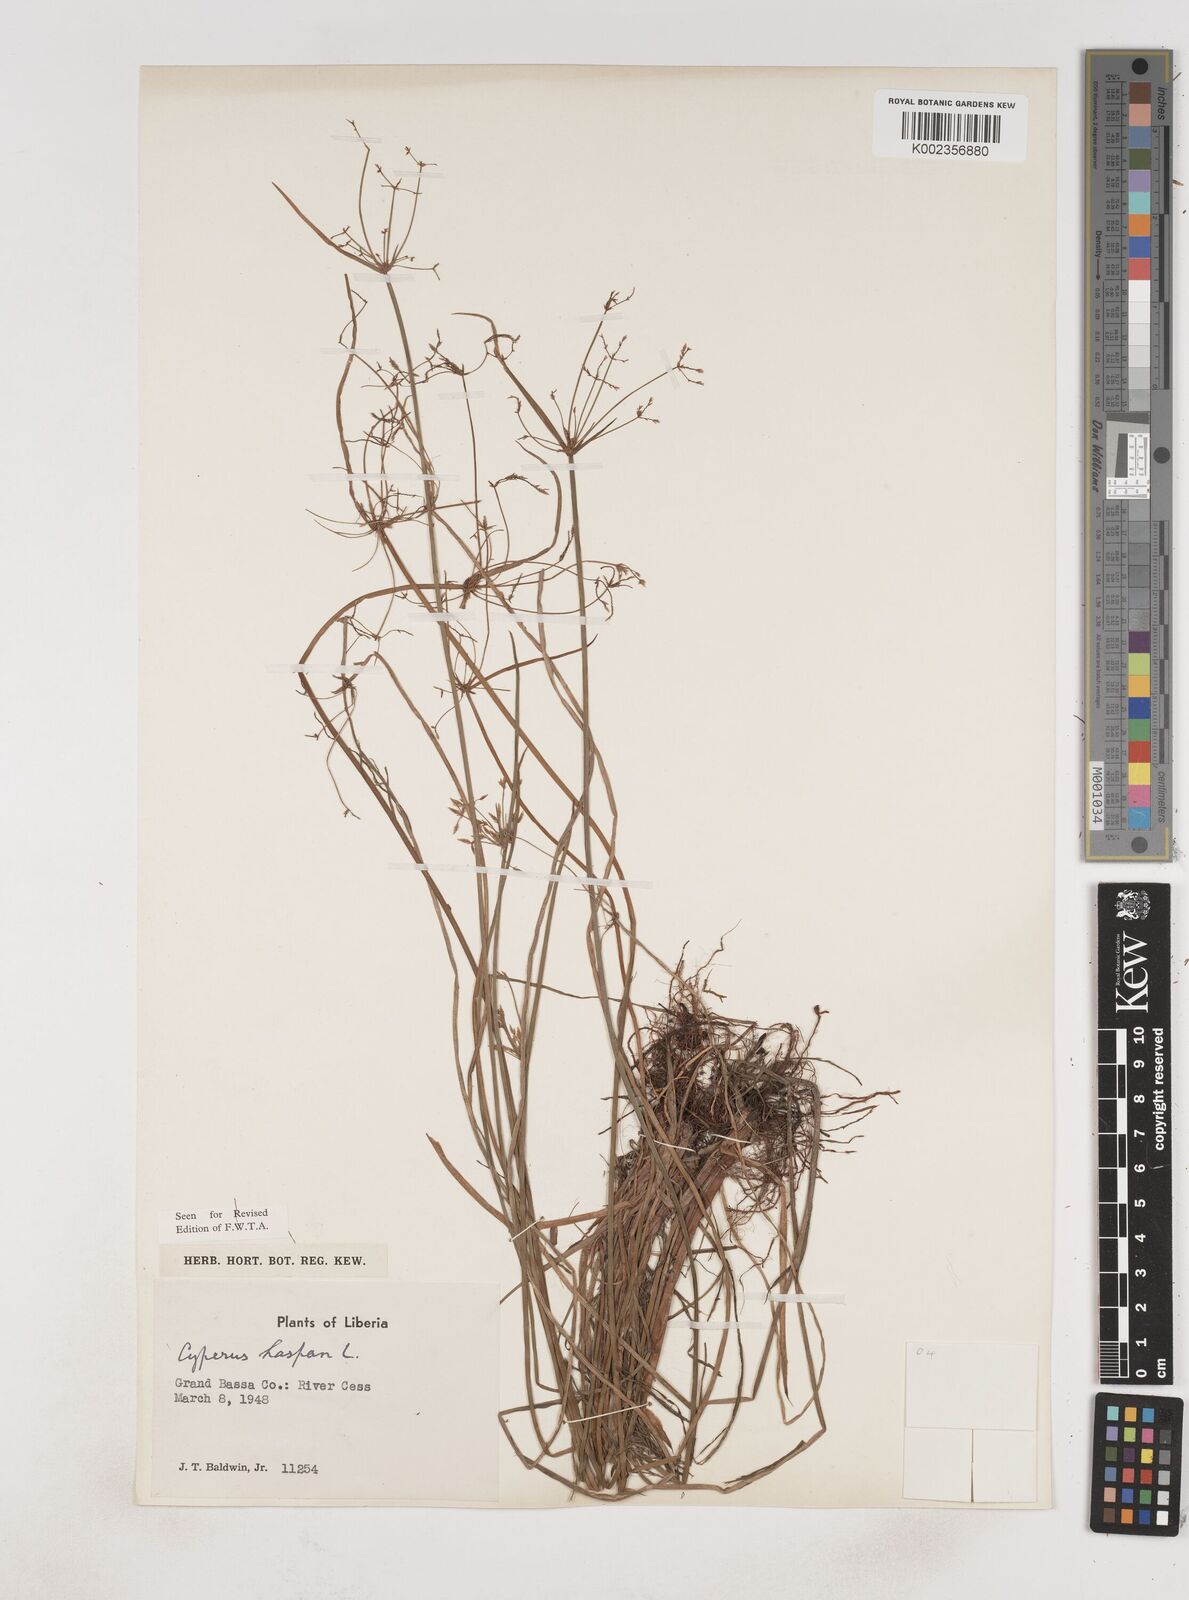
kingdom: Plantae
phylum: Tracheophyta
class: Liliopsida
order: Poales
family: Cyperaceae
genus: Cyperus
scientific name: Cyperus haspan
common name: Haspan flatsedge
